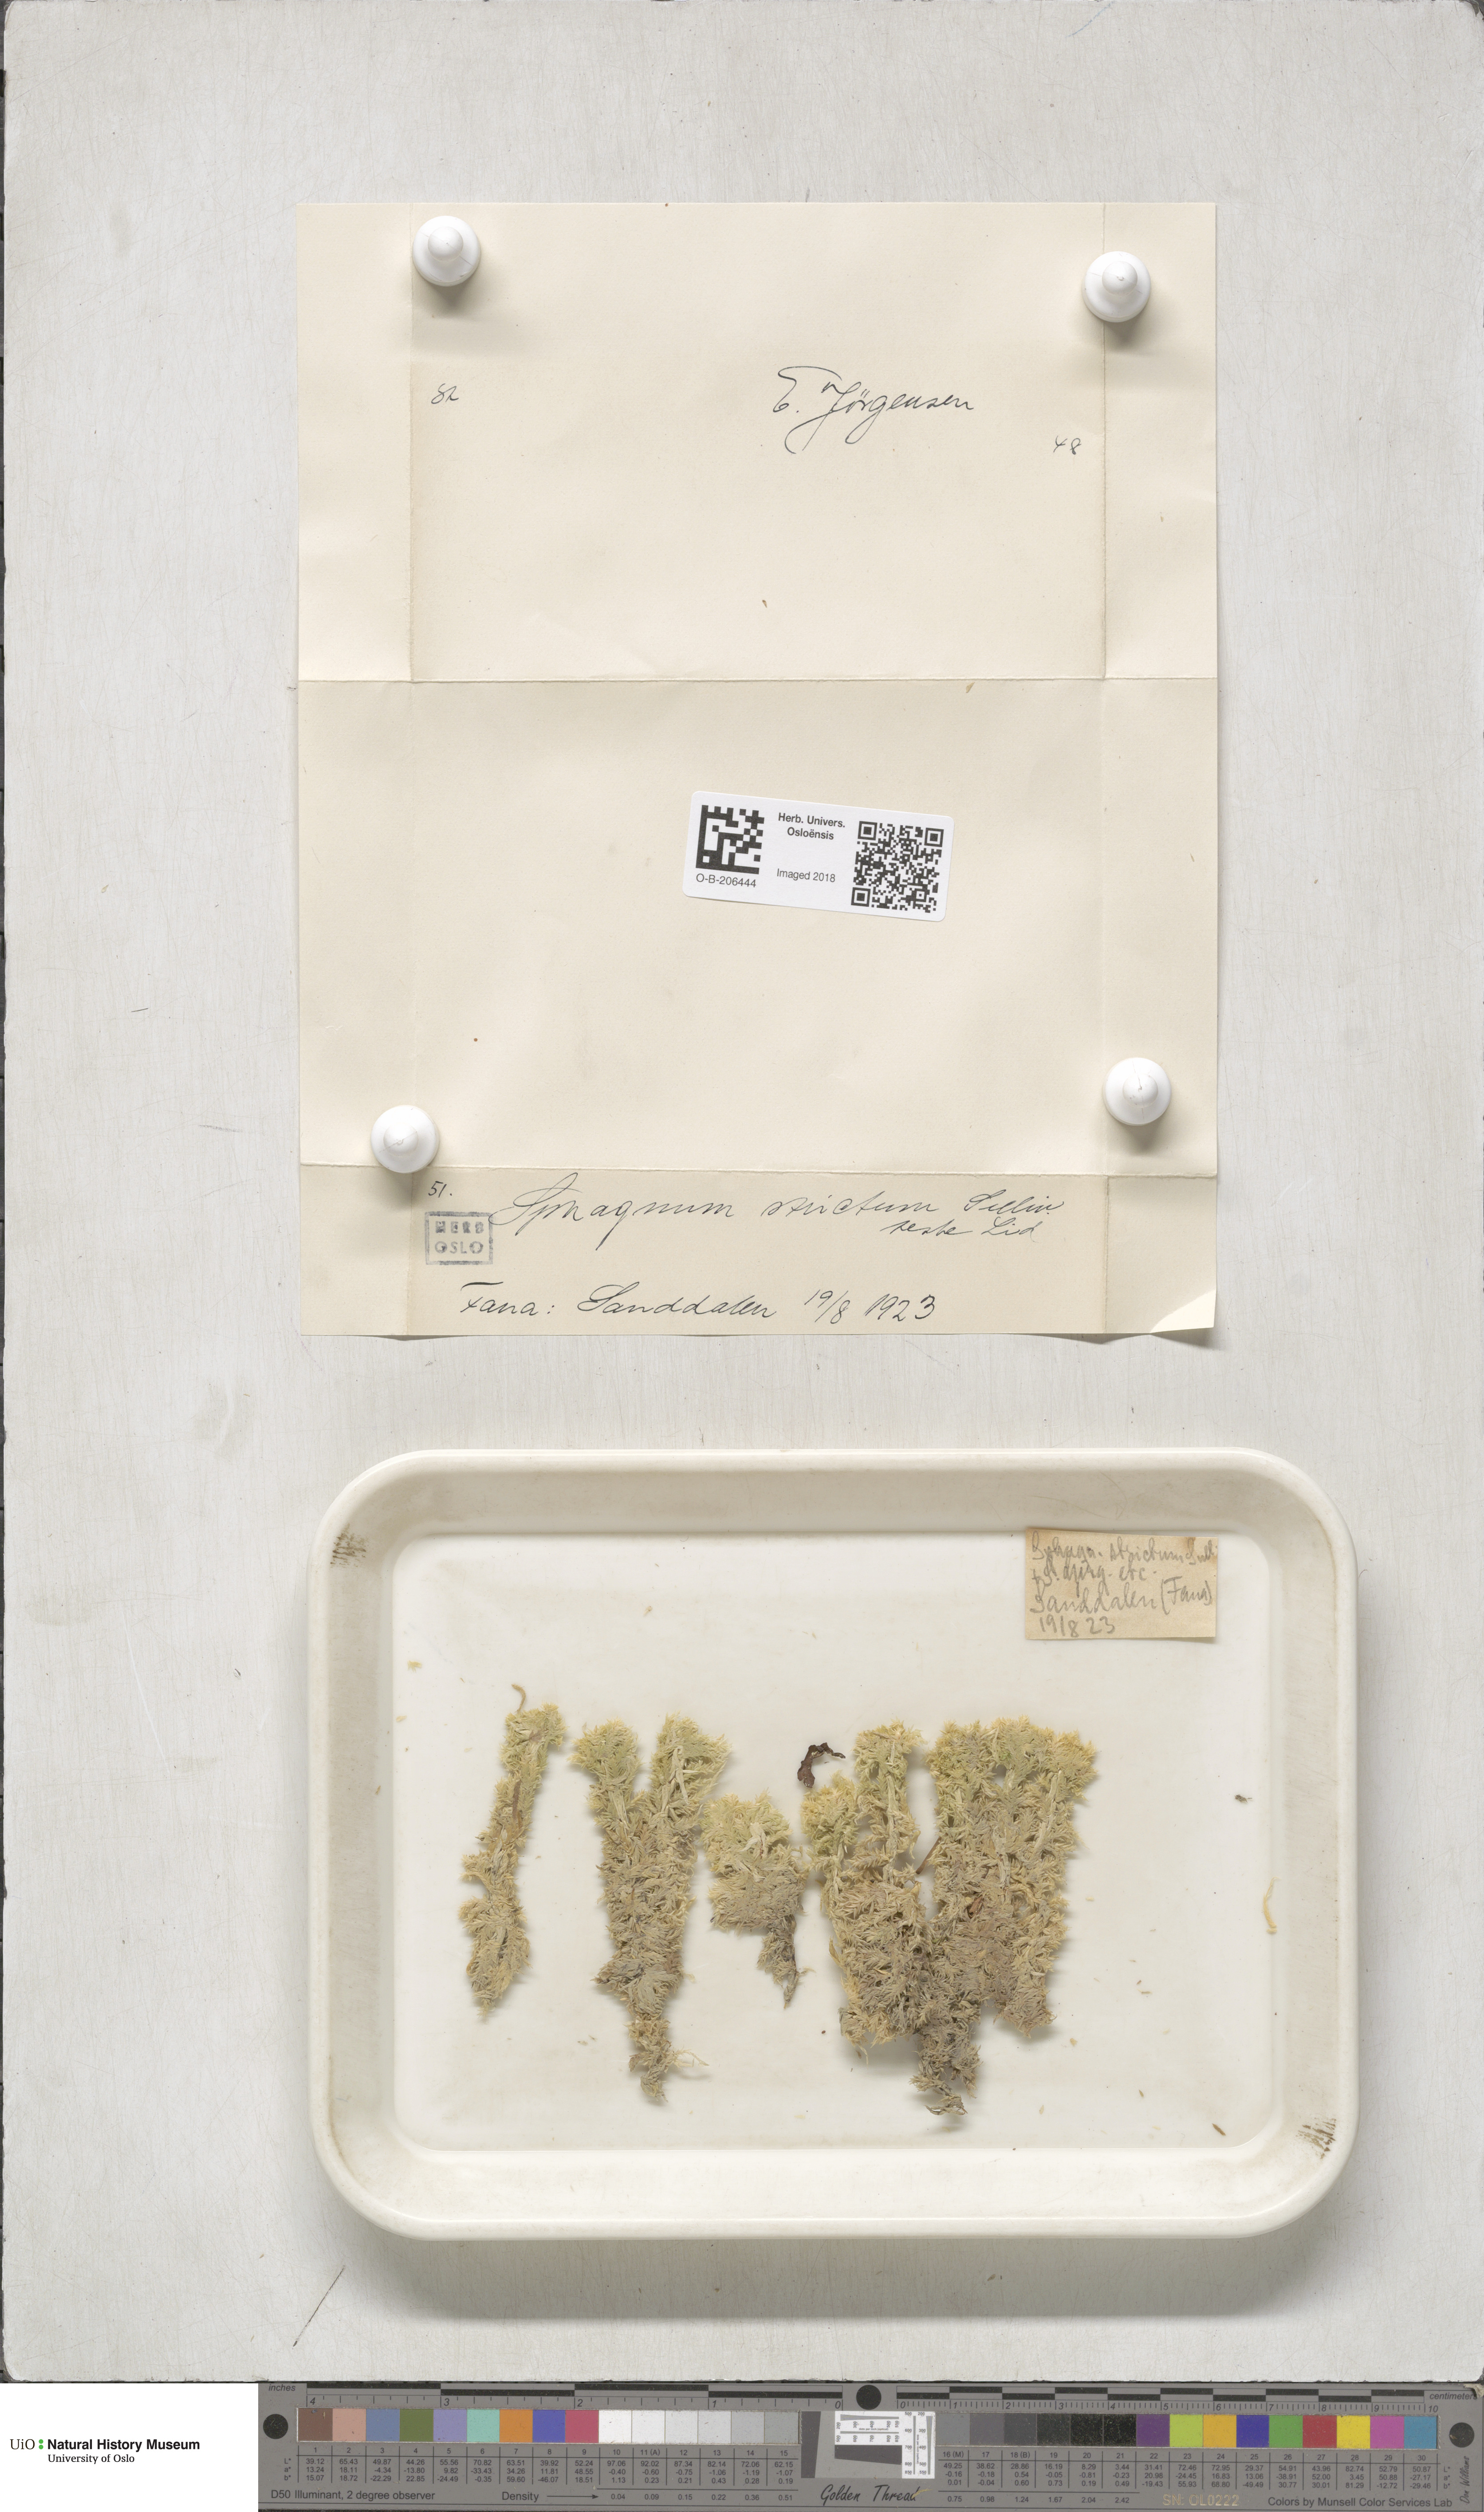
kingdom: Plantae
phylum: Bryophyta
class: Sphagnopsida
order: Sphagnales
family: Sphagnaceae
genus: Sphagnum
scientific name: Sphagnum strictum
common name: Pale bog-moss
